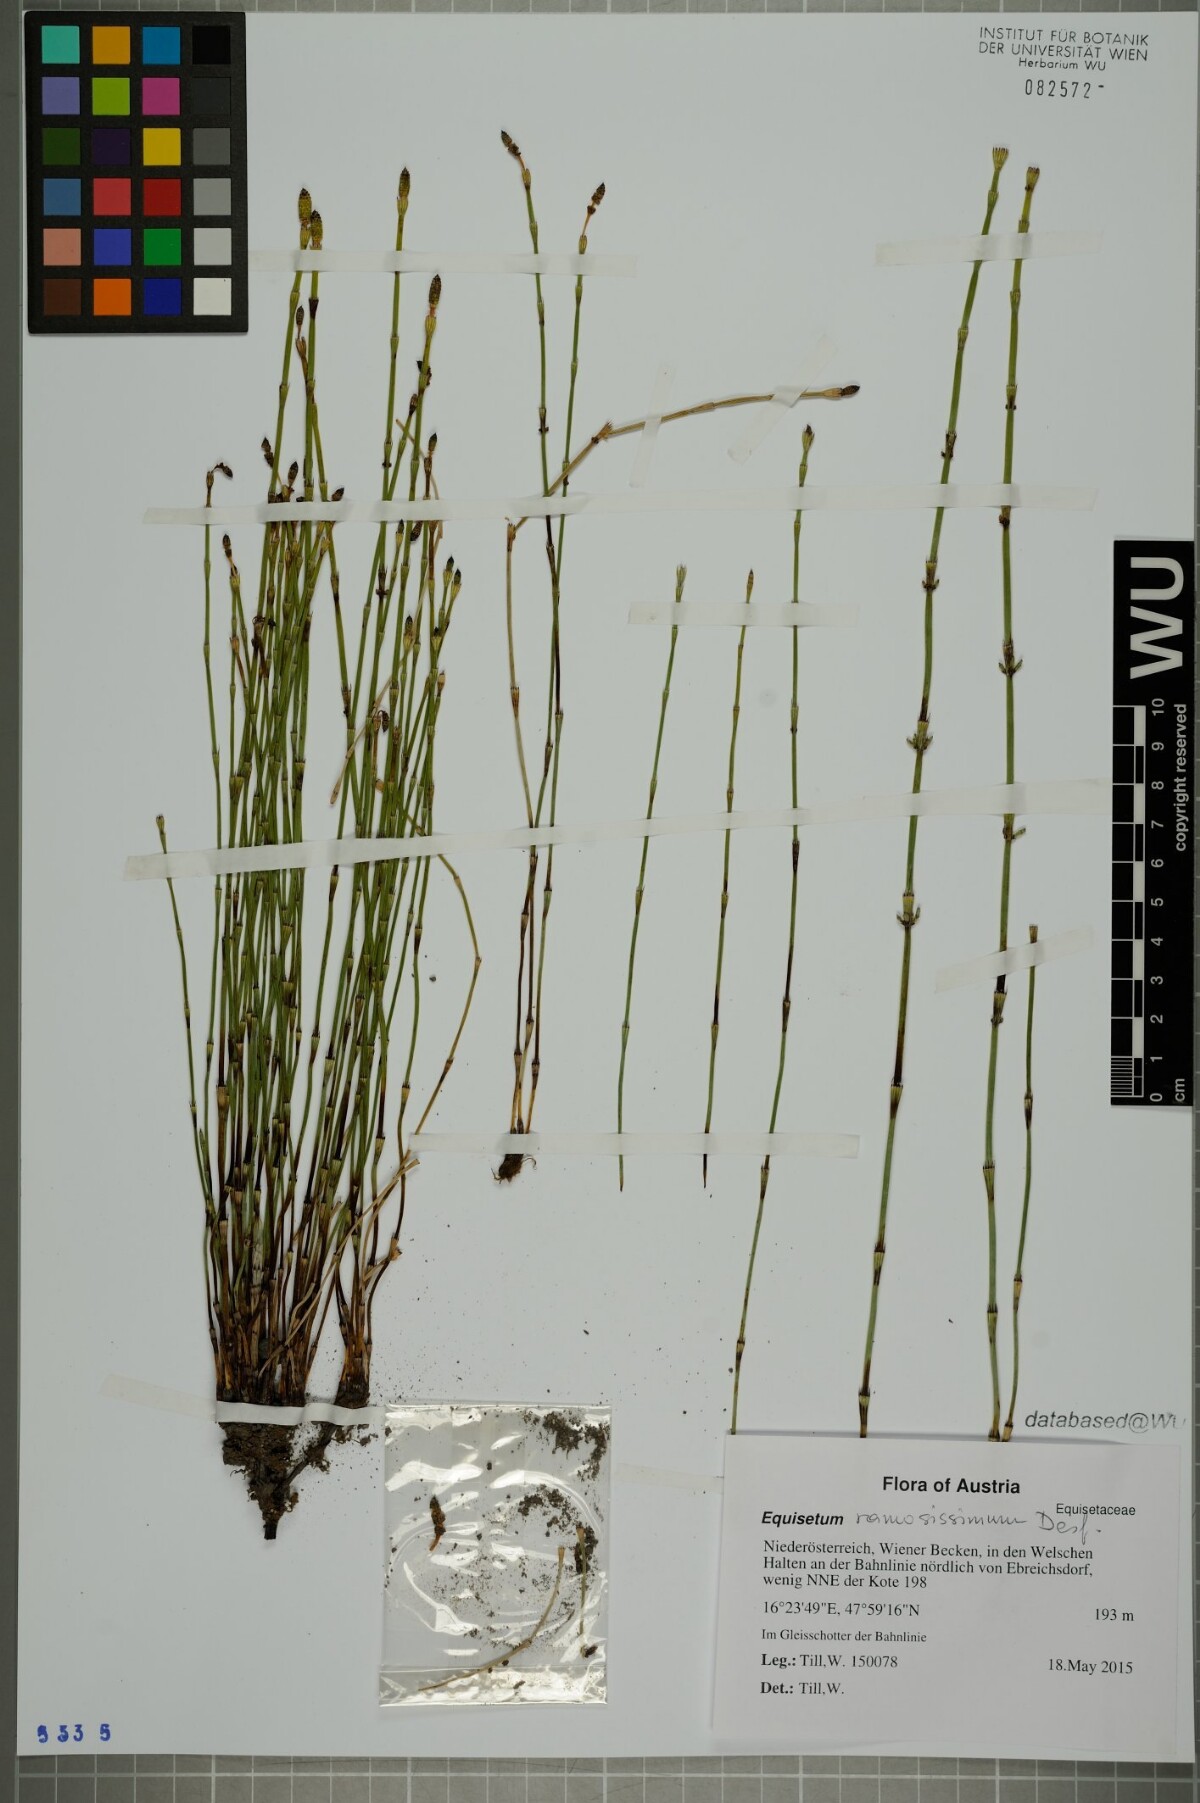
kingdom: Plantae
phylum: Tracheophyta
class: Polypodiopsida
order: Equisetales
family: Equisetaceae
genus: Equisetum
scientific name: Equisetum ramosissimum
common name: Branched horsetail
